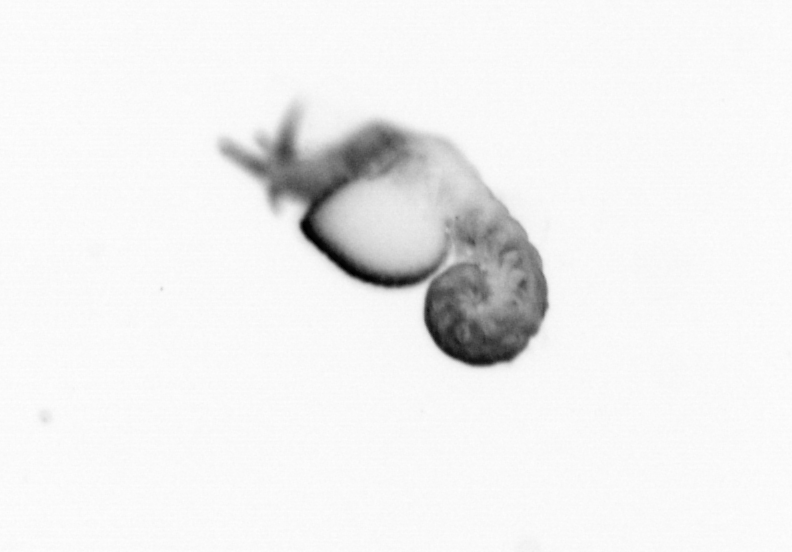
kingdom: Animalia
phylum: Annelida
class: Polychaeta
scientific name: Polychaeta
